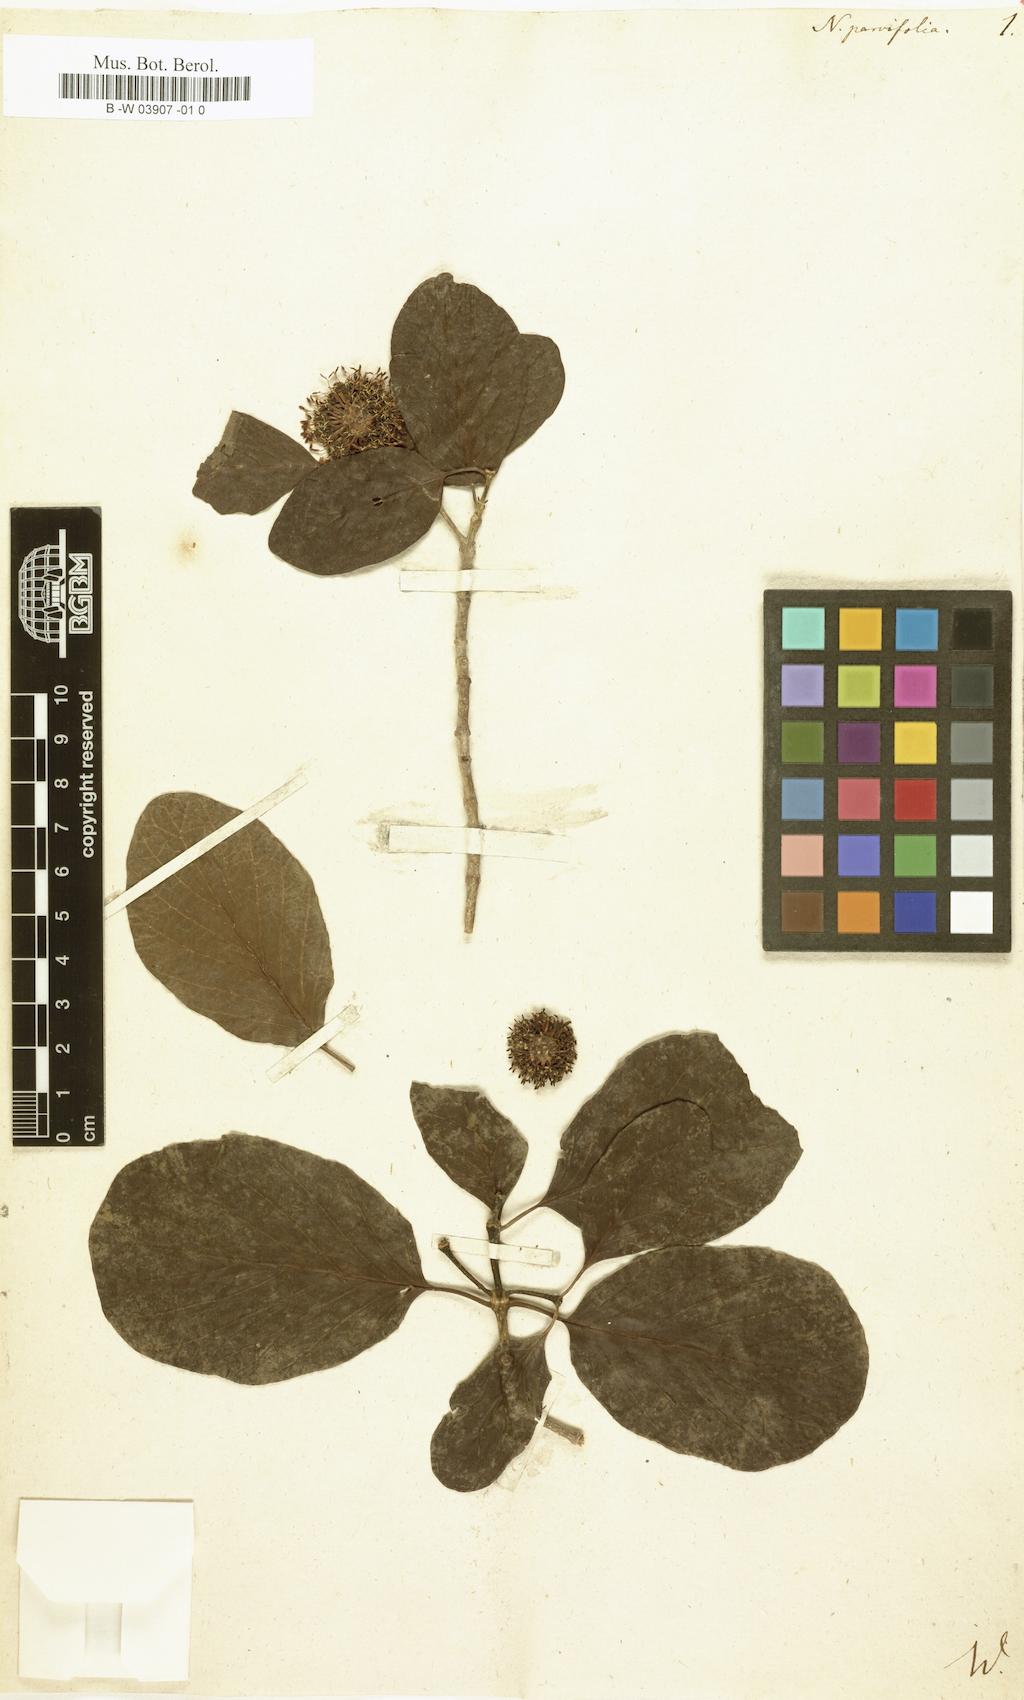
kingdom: Plantae
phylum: Tracheophyta
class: Magnoliopsida
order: Gentianales
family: Rubiaceae
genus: Nauclea
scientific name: Nauclea parvifolia
